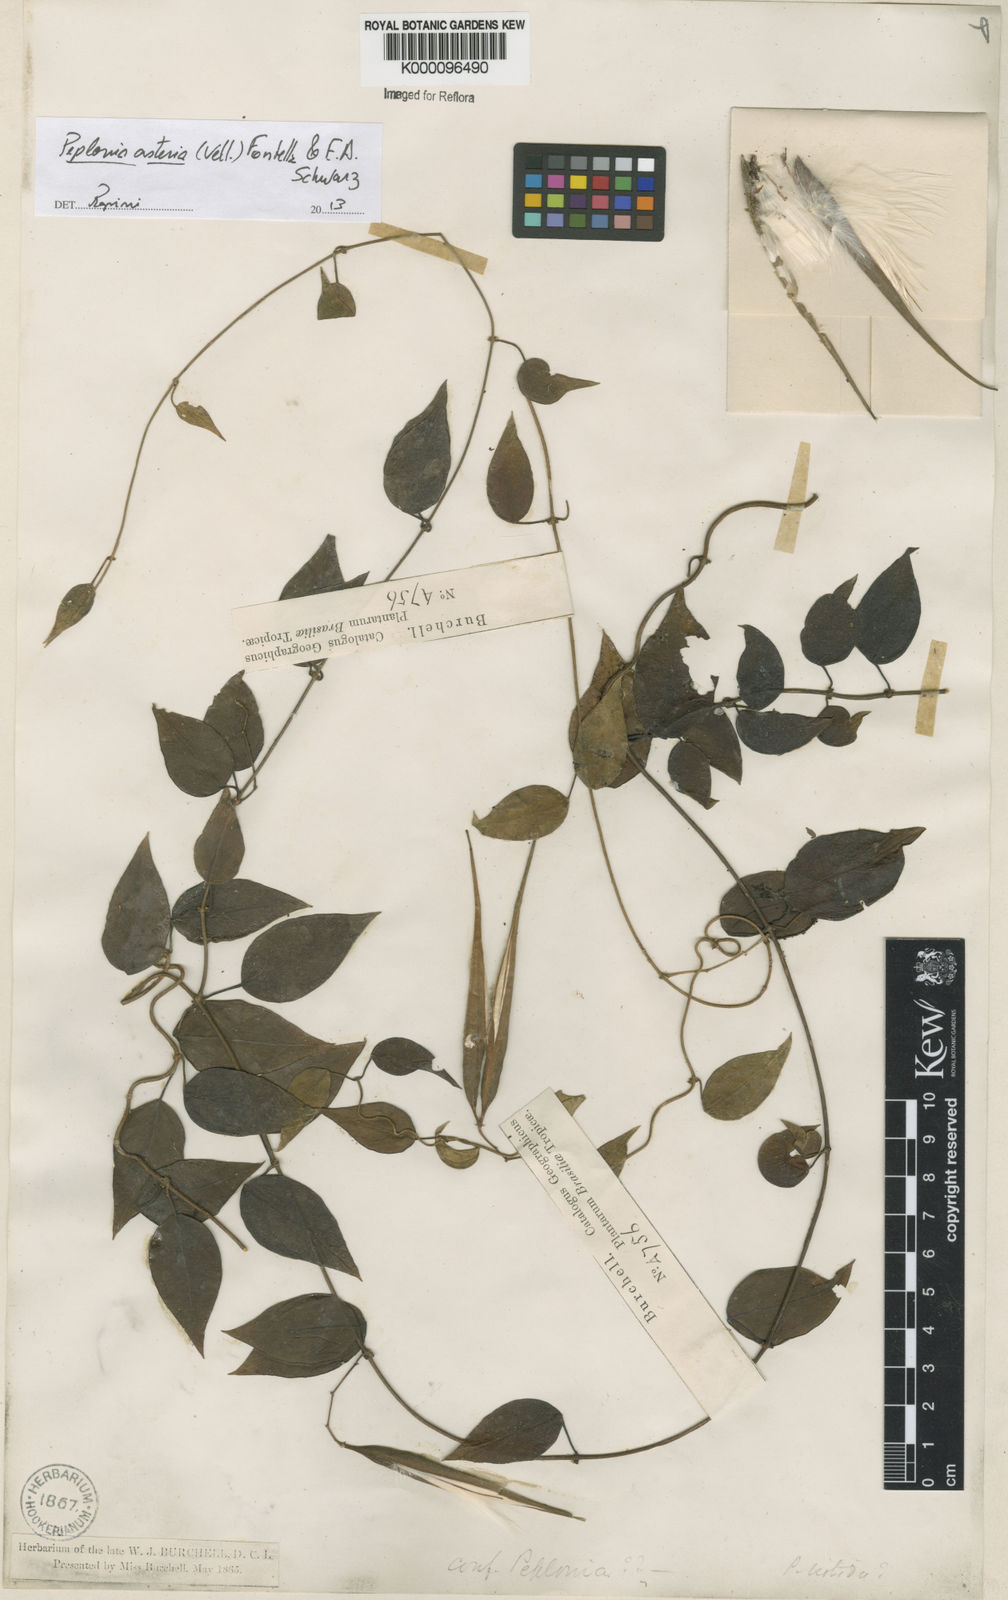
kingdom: Plantae
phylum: Tracheophyta
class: Magnoliopsida
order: Gentianales
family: Apocynaceae
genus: Peplonia
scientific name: Peplonia asteria
